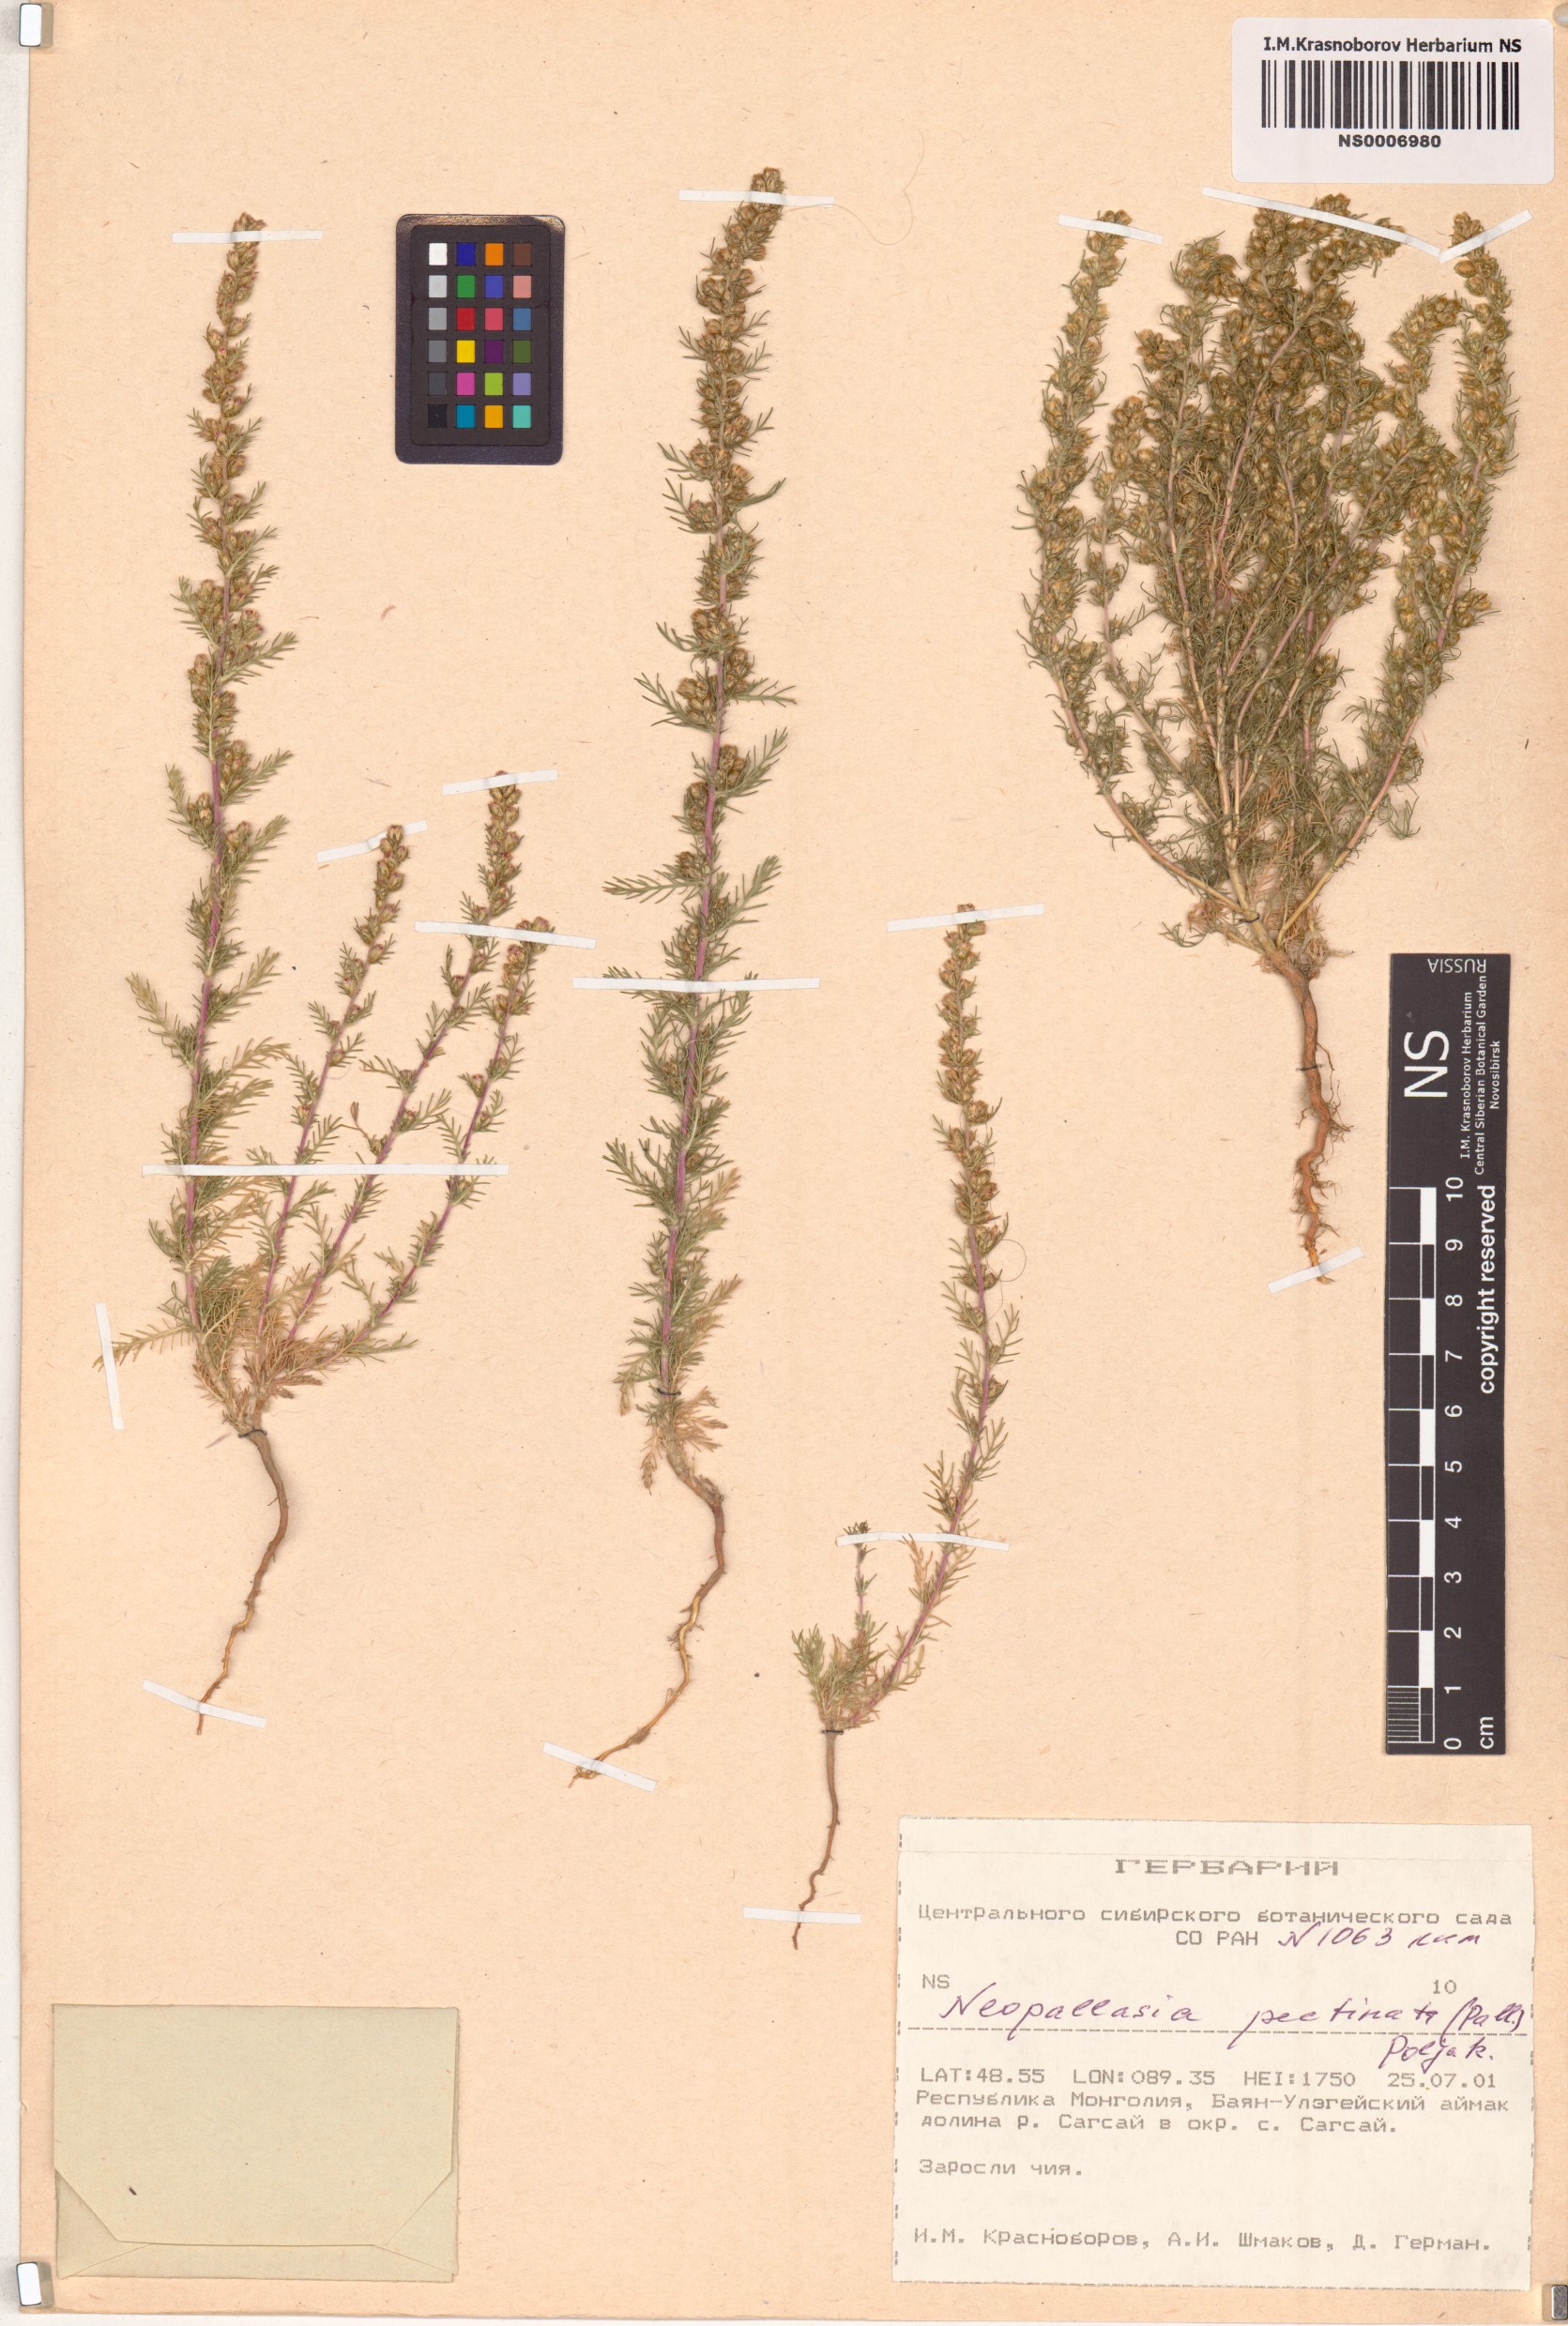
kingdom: Plantae
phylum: Tracheophyta
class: Magnoliopsida
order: Asterales
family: Asteraceae
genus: Neopallasia
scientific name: Neopallasia pectinata
